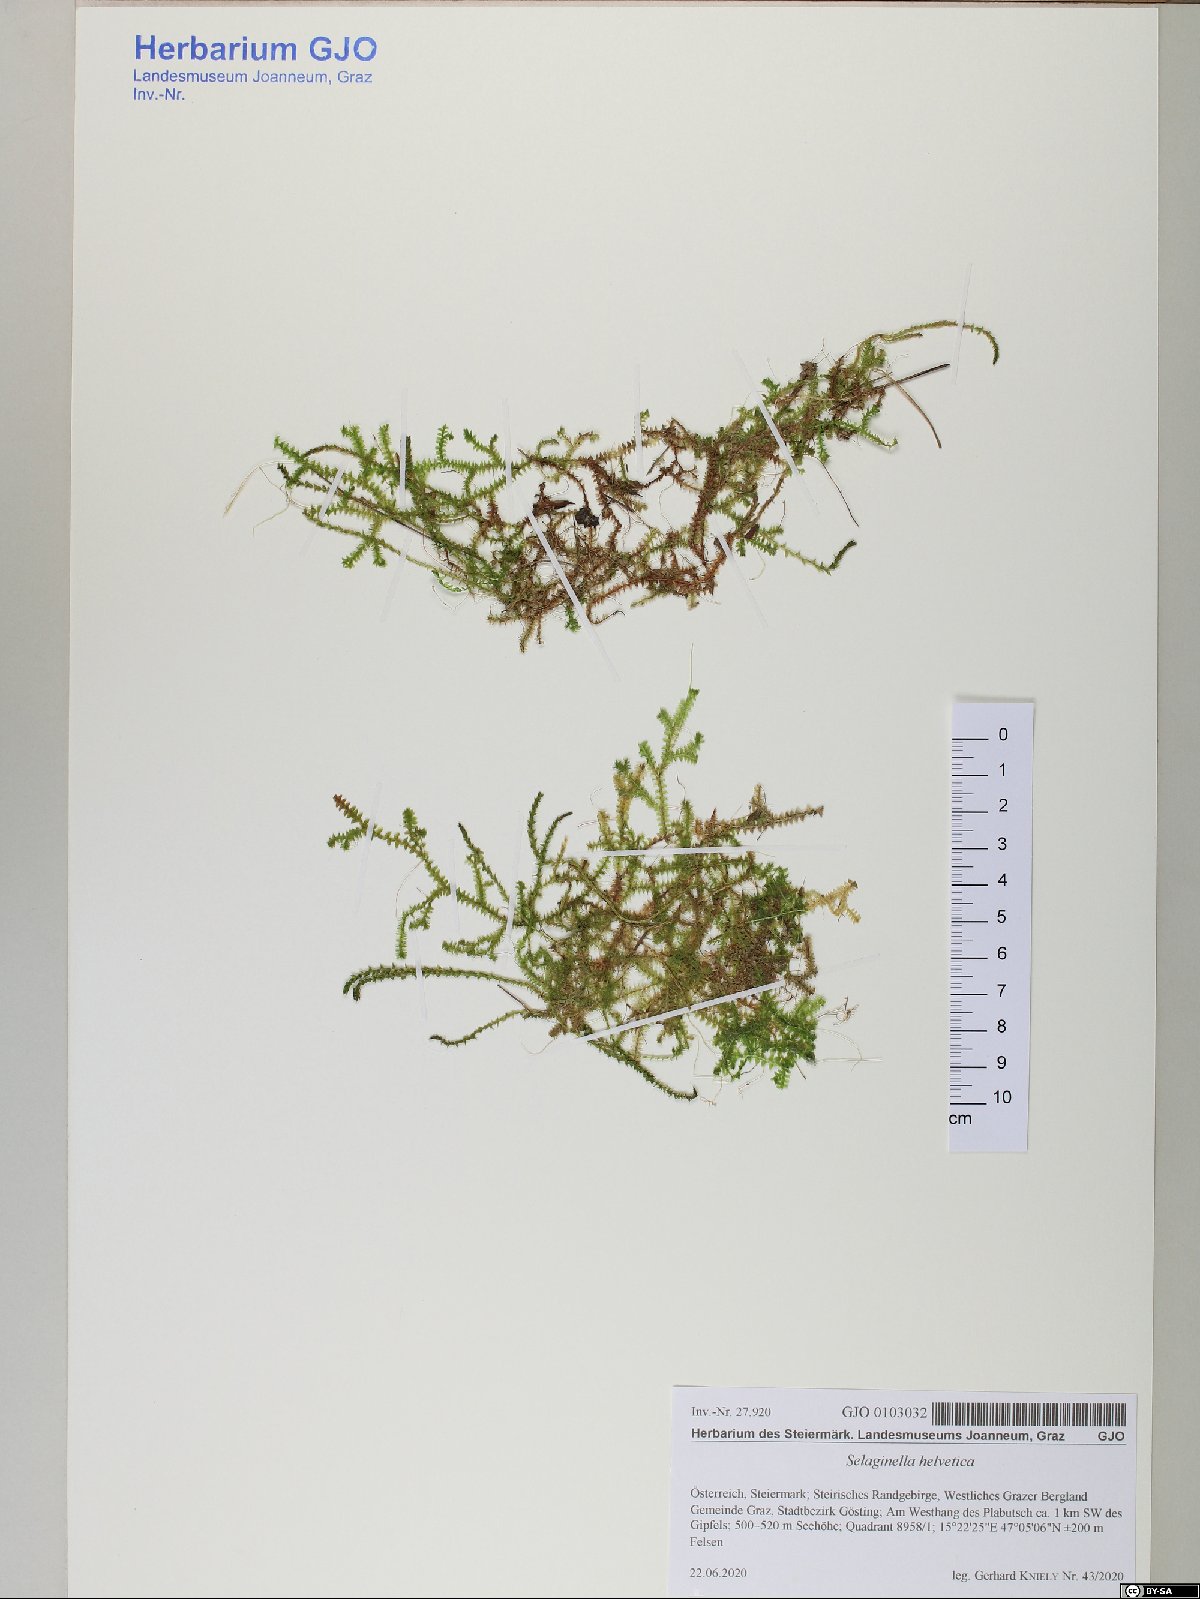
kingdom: Plantae
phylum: Tracheophyta
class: Lycopodiopsida
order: Selaginellales
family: Selaginellaceae
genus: Selaginella
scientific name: Selaginella helvetica
